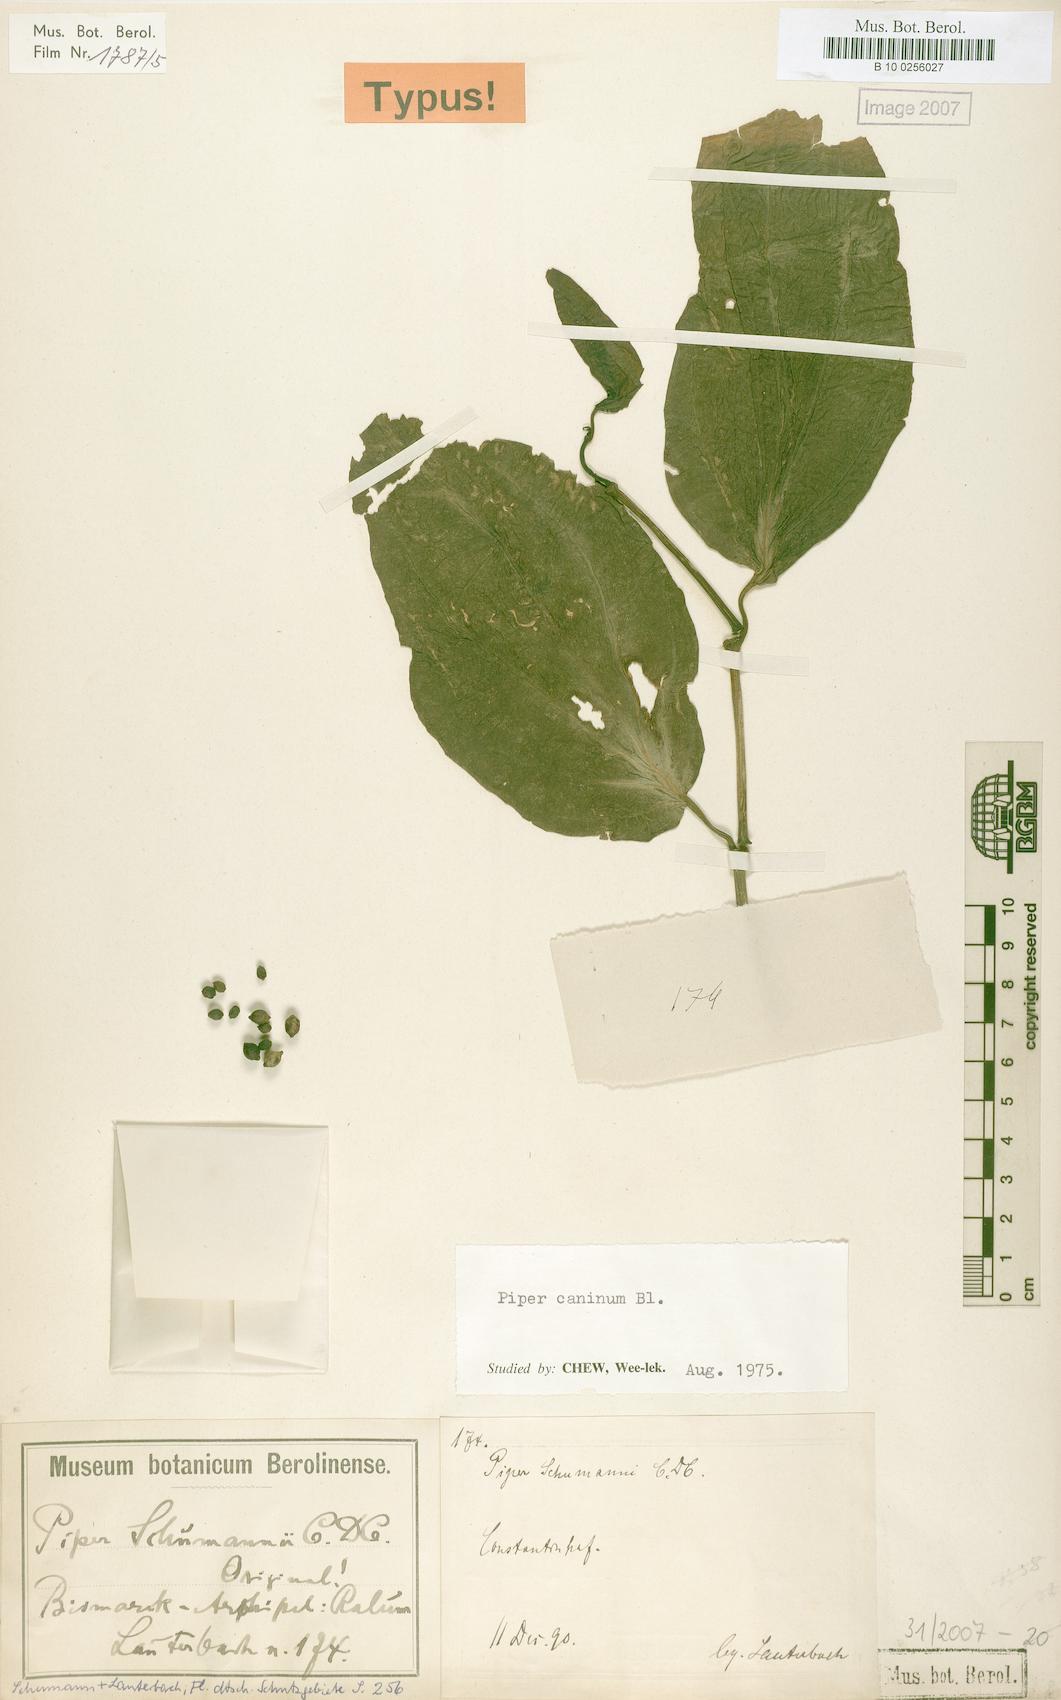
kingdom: Plantae
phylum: Tracheophyta
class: Magnoliopsida
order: Piperales
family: Piperaceae
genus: Piper
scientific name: Piper lanatum
